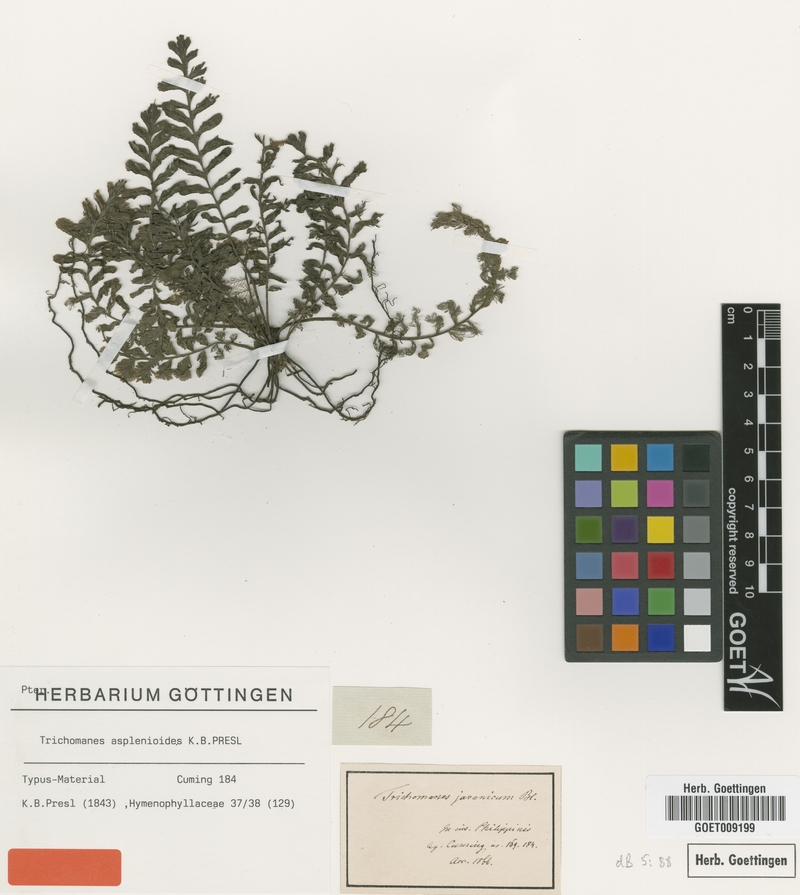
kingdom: Plantae
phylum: Tracheophyta
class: Polypodiopsida
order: Hymenophyllales
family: Hymenophyllaceae
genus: Cephalomanes
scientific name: Cephalomanes laciniatum
